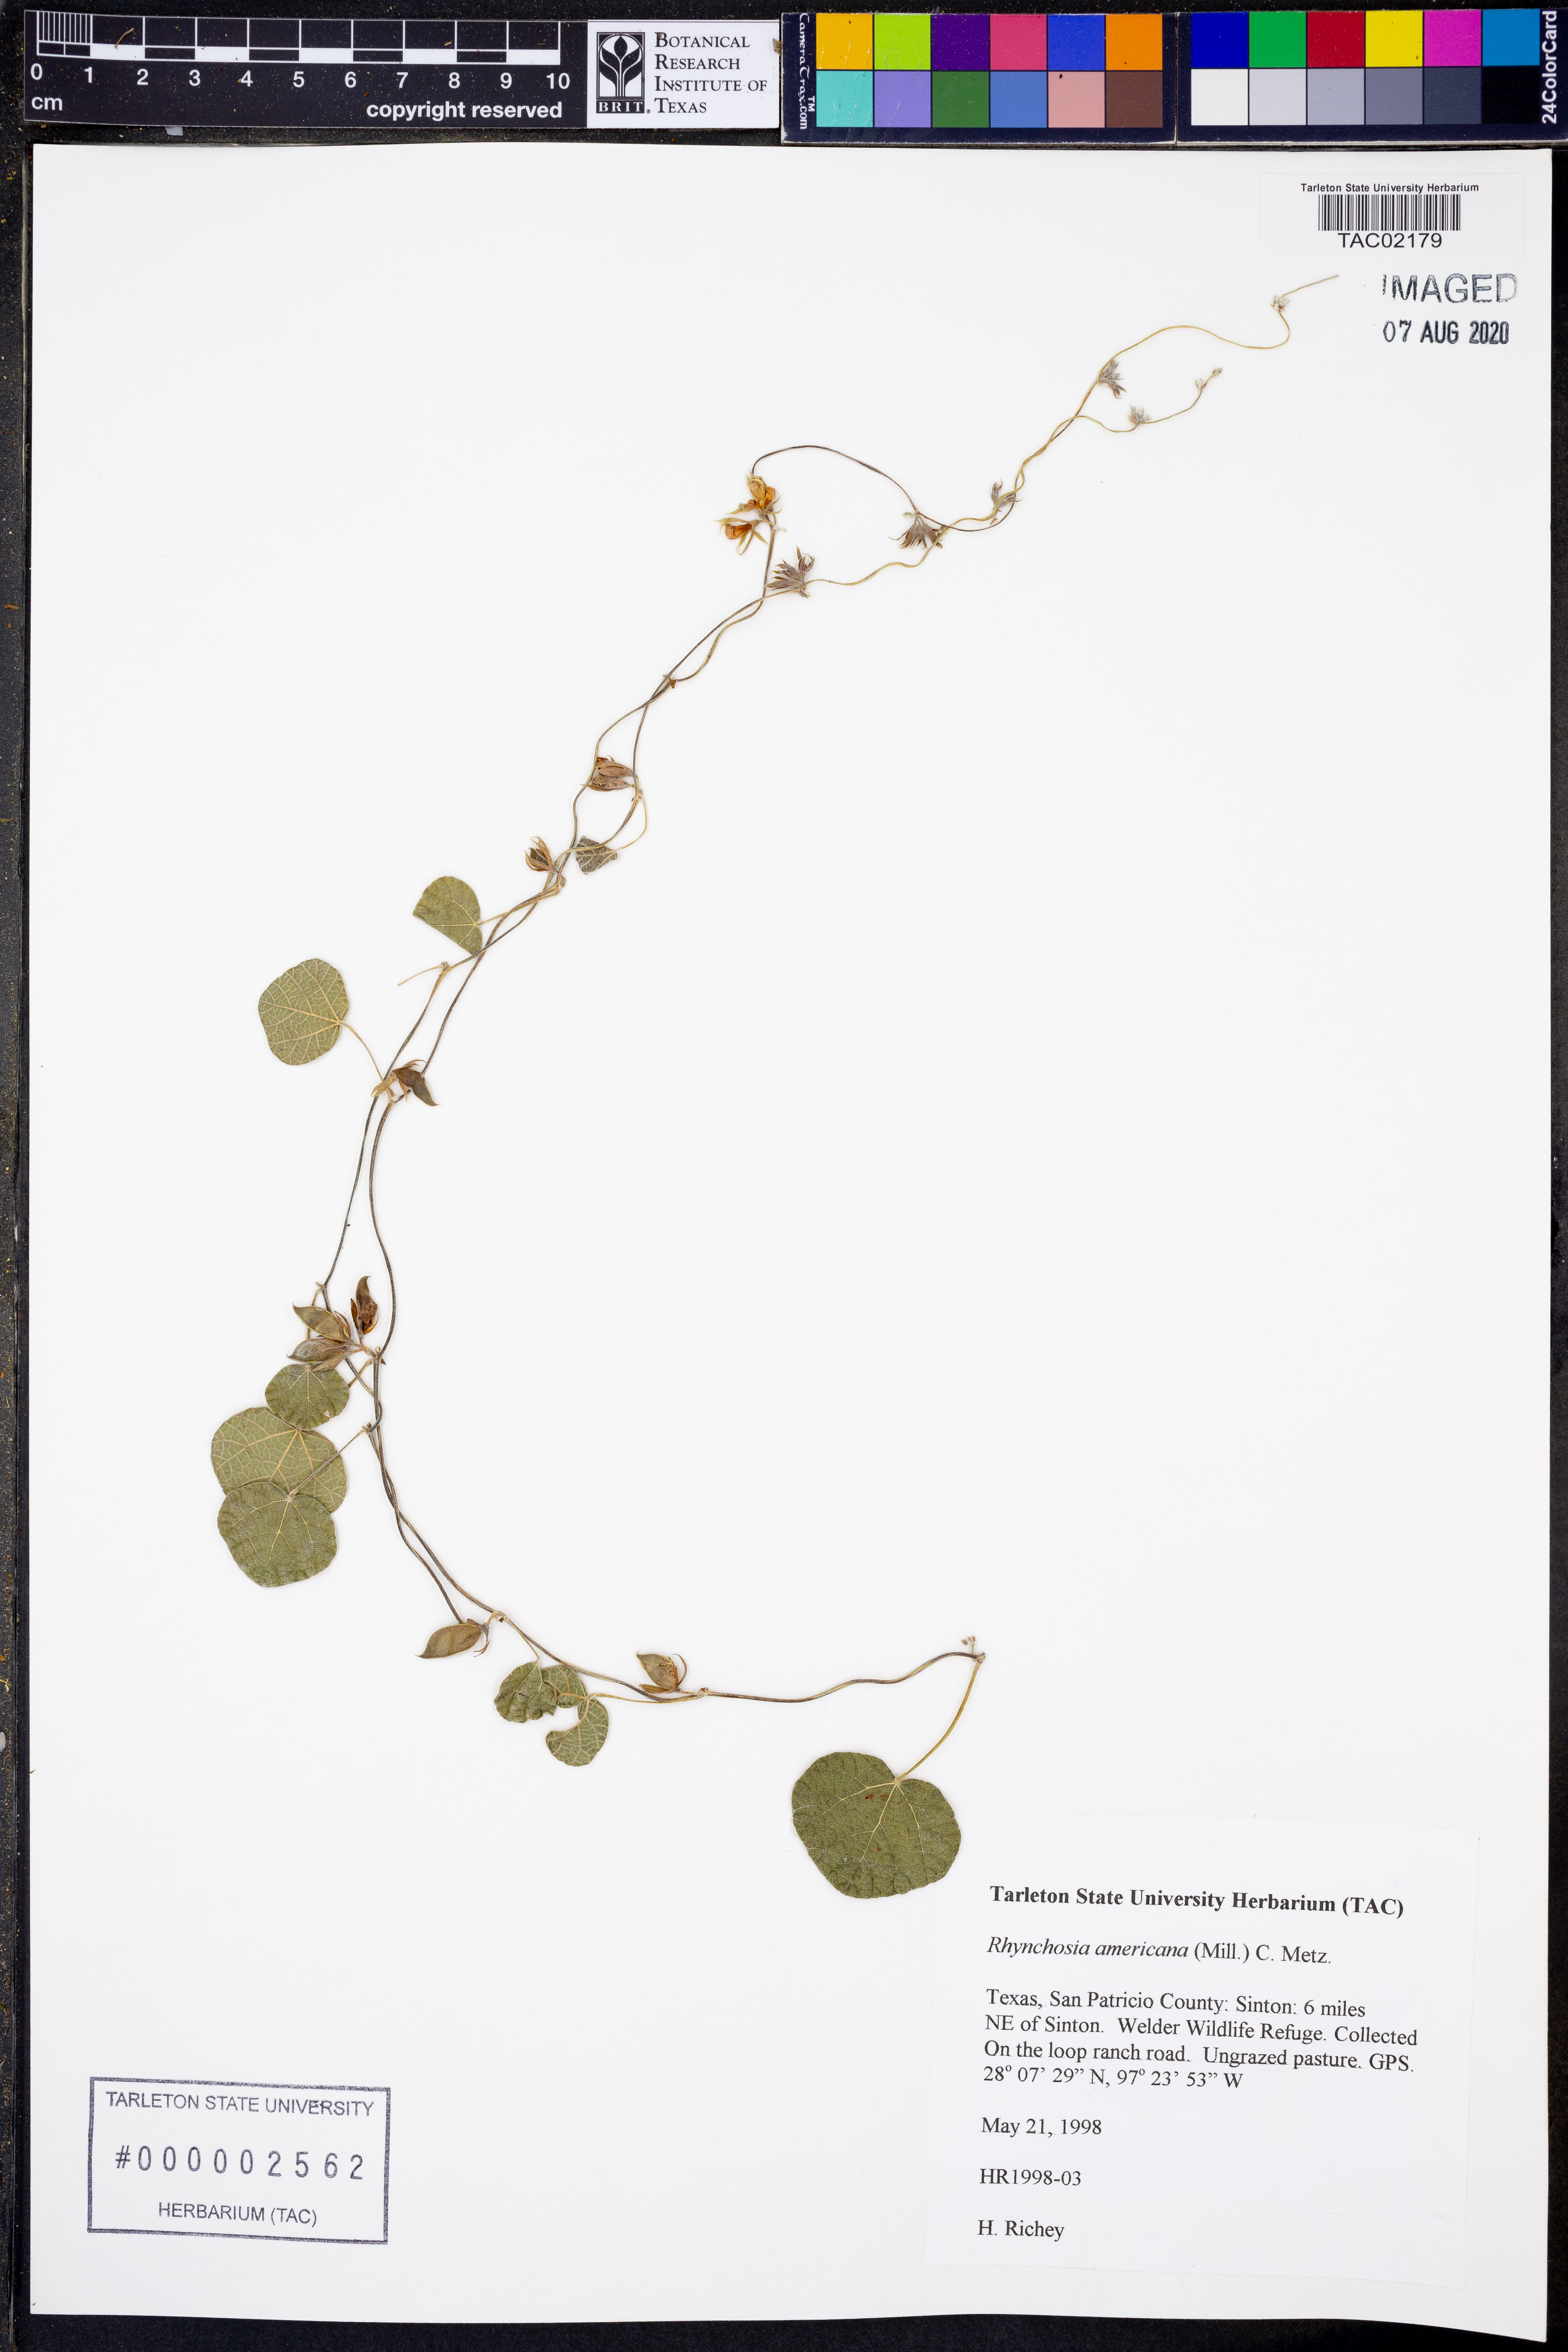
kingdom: Plantae
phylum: Tracheophyta
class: Magnoliopsida
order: Fabales
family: Fabaceae
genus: Rhynchosia
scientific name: Rhynchosia americana
